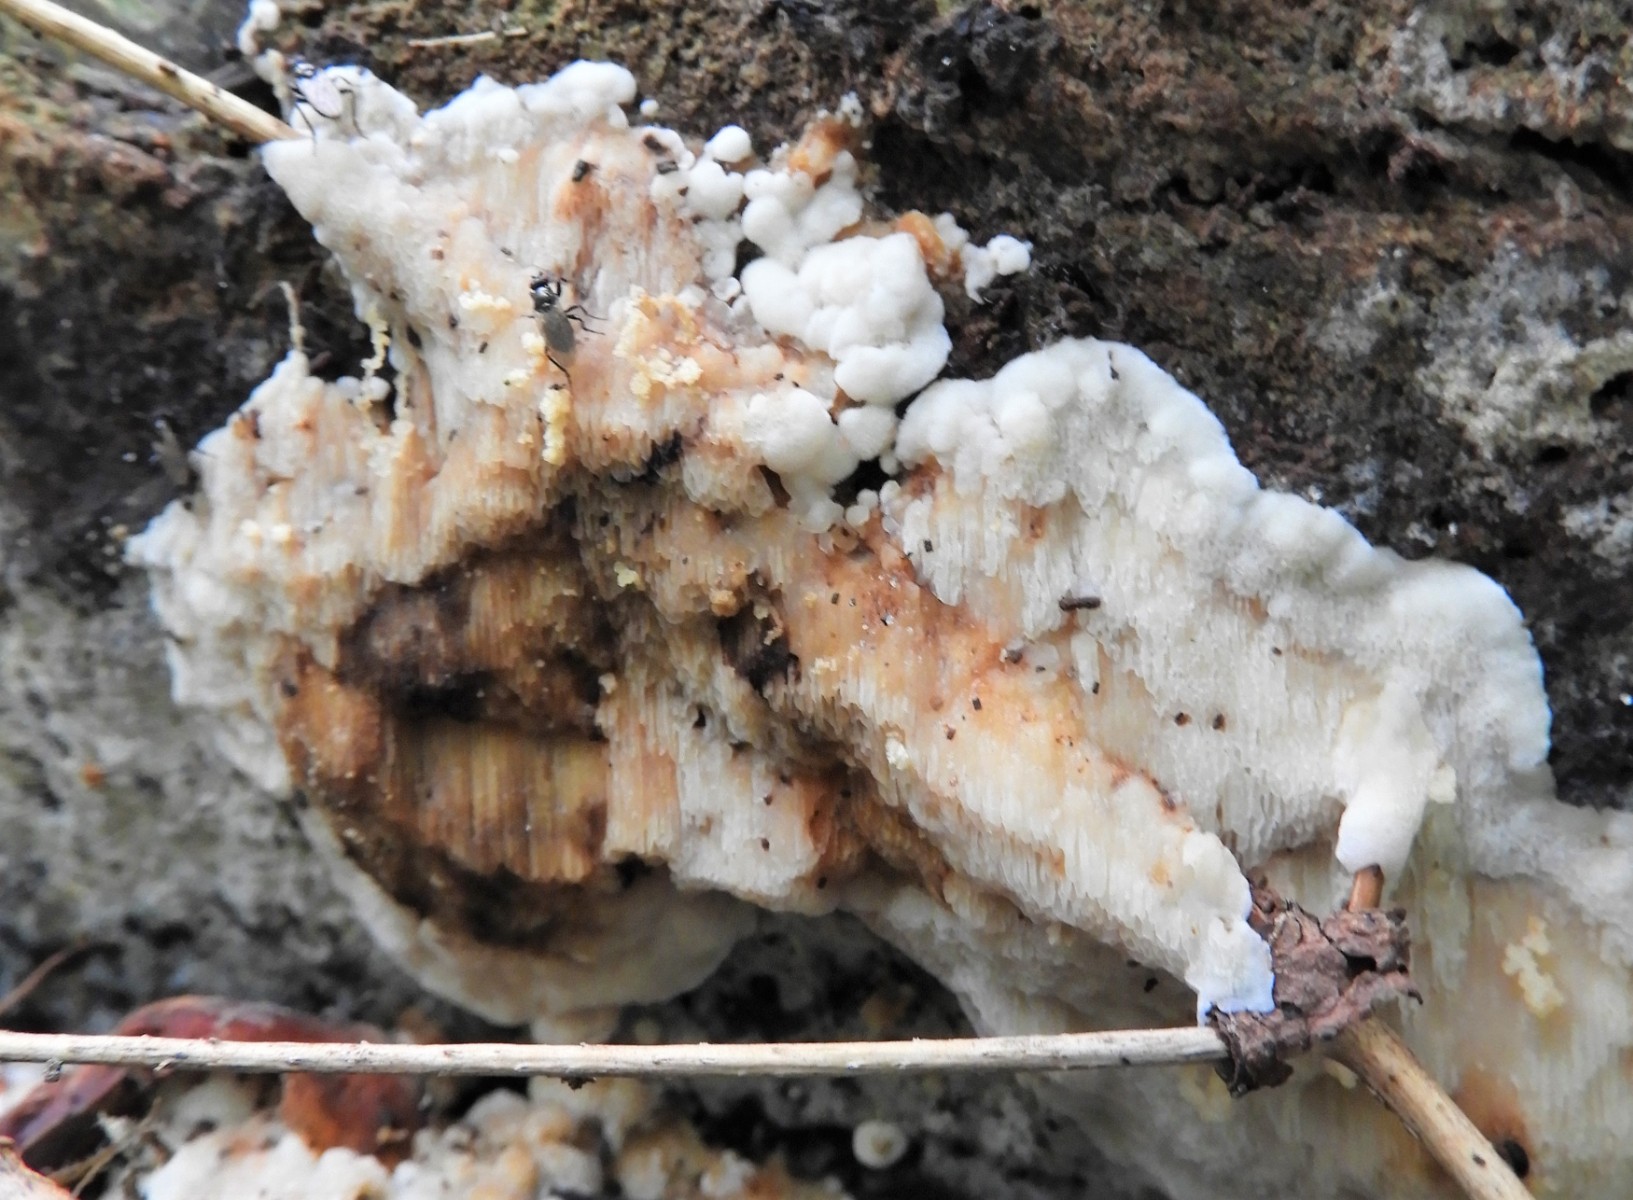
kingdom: Fungi
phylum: Basidiomycota
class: Agaricomycetes
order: Polyporales
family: Meripilaceae
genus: Rigidoporus
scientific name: Rigidoporus sanguinolentus
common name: blod-skorpeporesvamp
